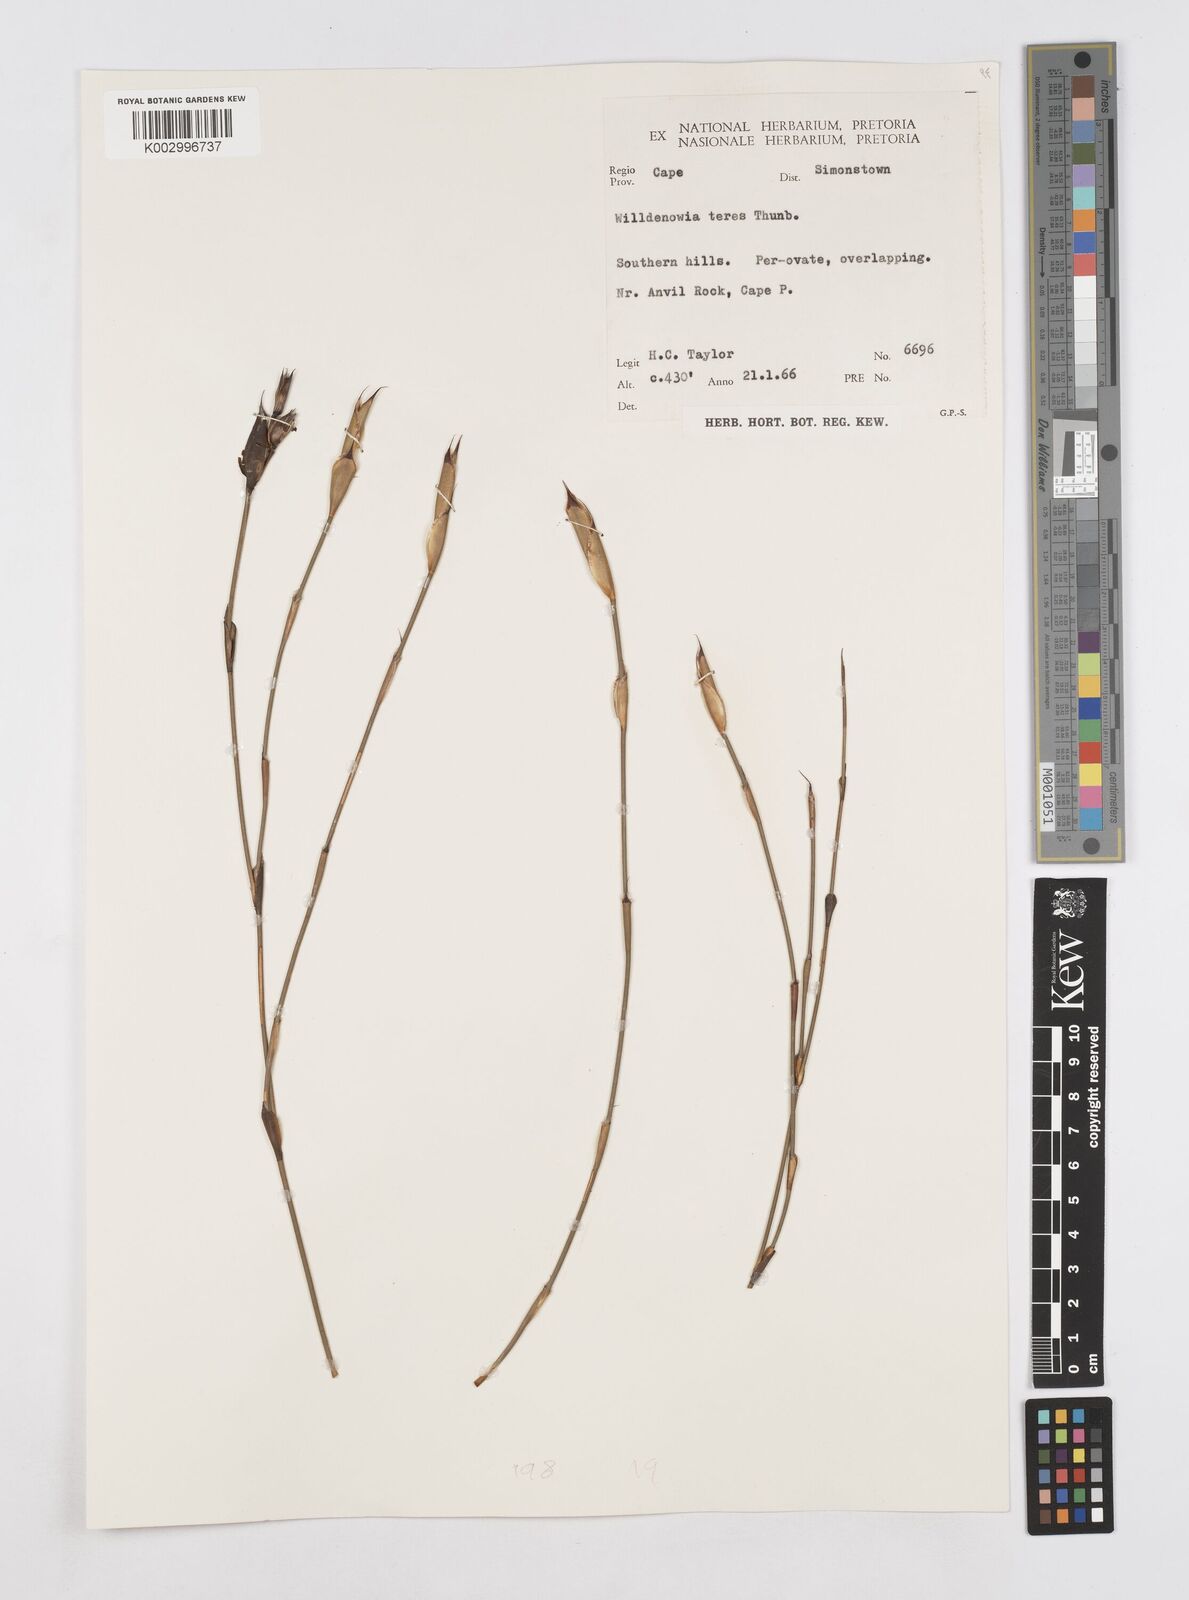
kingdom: Plantae
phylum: Tracheophyta
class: Liliopsida
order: Poales
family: Restionaceae
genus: Willdenowia
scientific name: Willdenowia incurvata
